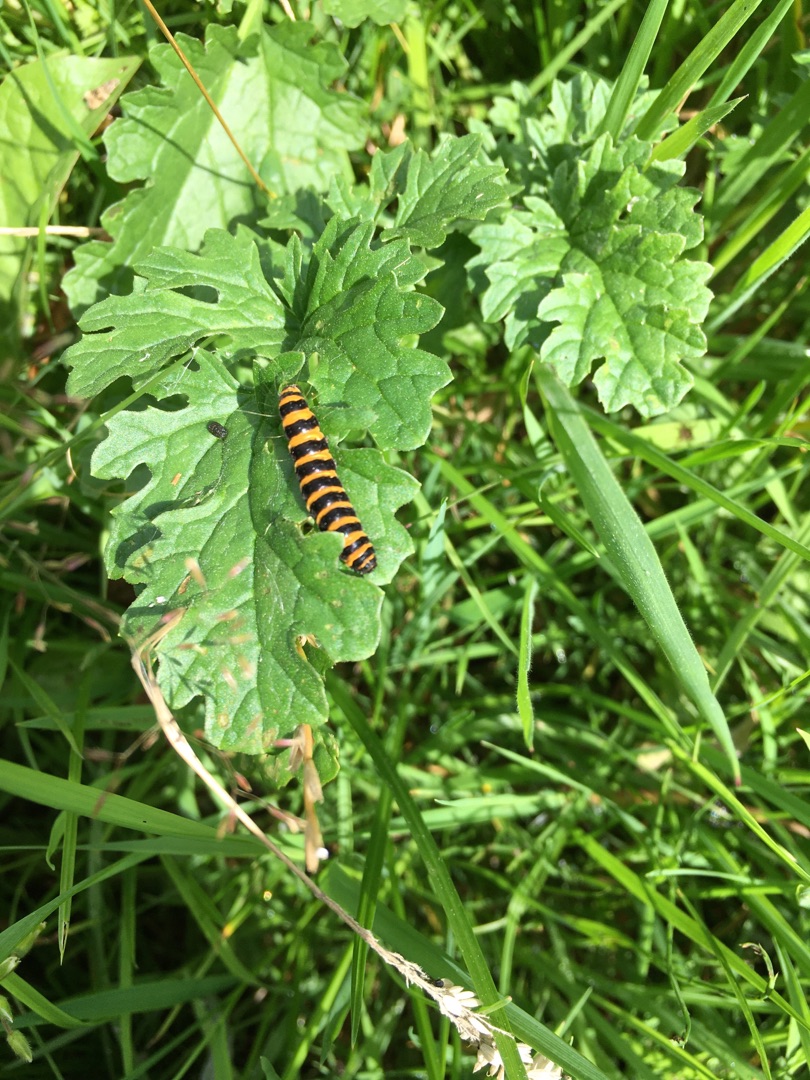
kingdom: Animalia
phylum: Arthropoda
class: Insecta
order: Lepidoptera
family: Erebidae
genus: Tyria
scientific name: Tyria jacobaeae
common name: Blodplet
